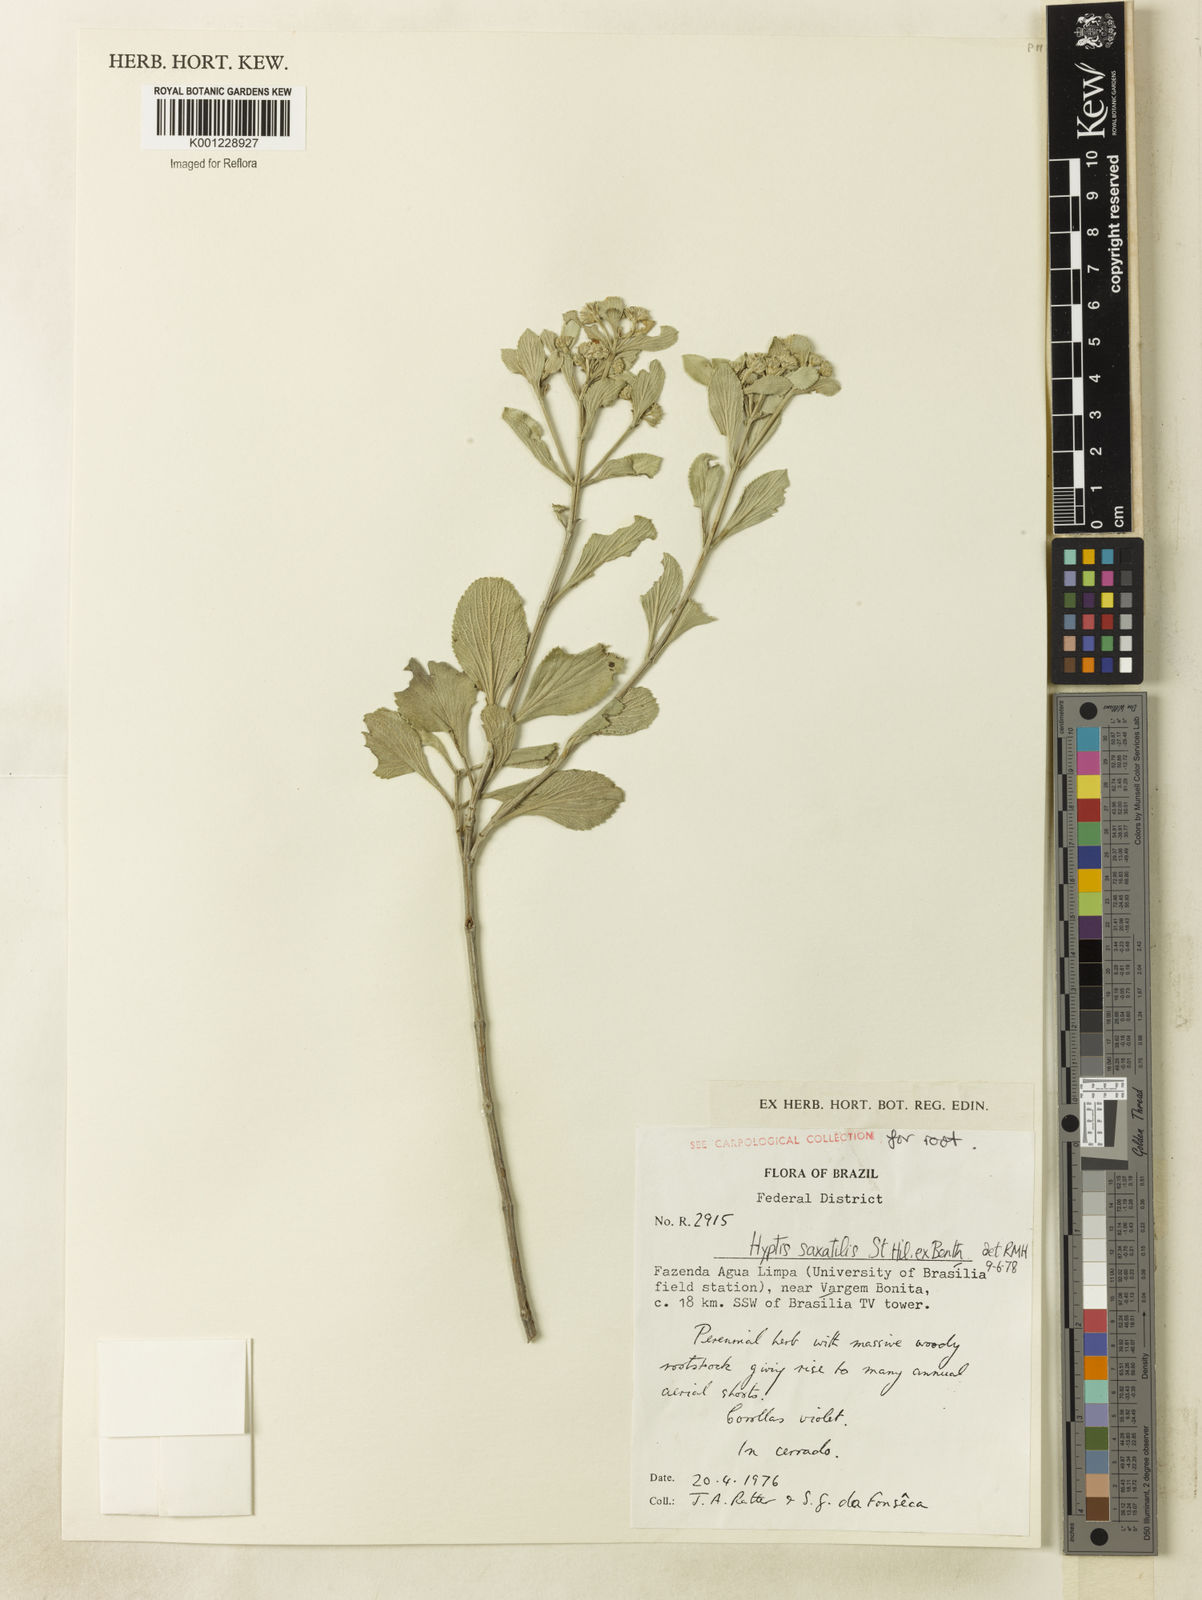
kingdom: Plantae
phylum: Tracheophyta
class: Magnoliopsida
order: Lamiales
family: Lamiaceae
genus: Hyptis
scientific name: Hyptis saxatilis
